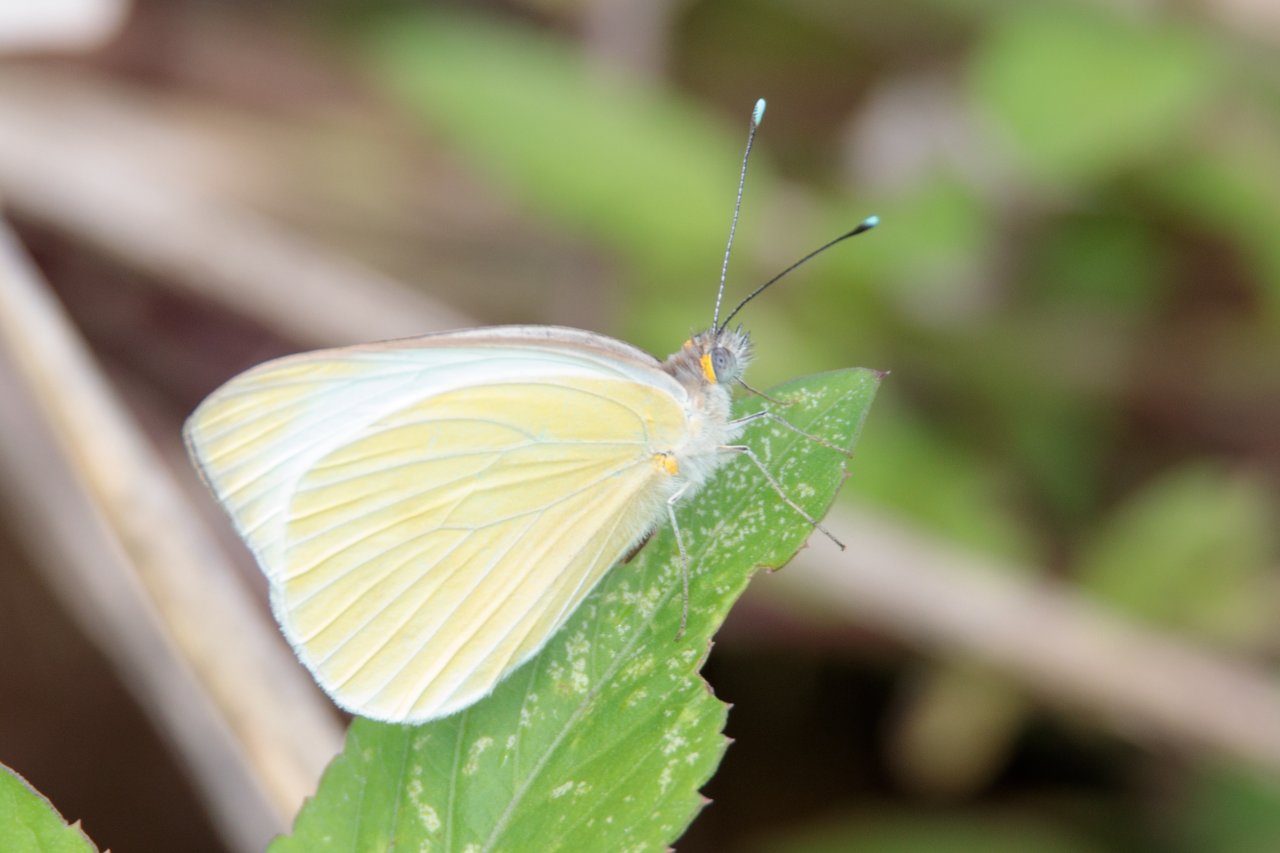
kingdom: Animalia
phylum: Arthropoda
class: Insecta
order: Lepidoptera
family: Pieridae
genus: Ascia
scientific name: Ascia monuste
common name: Great Southern White
